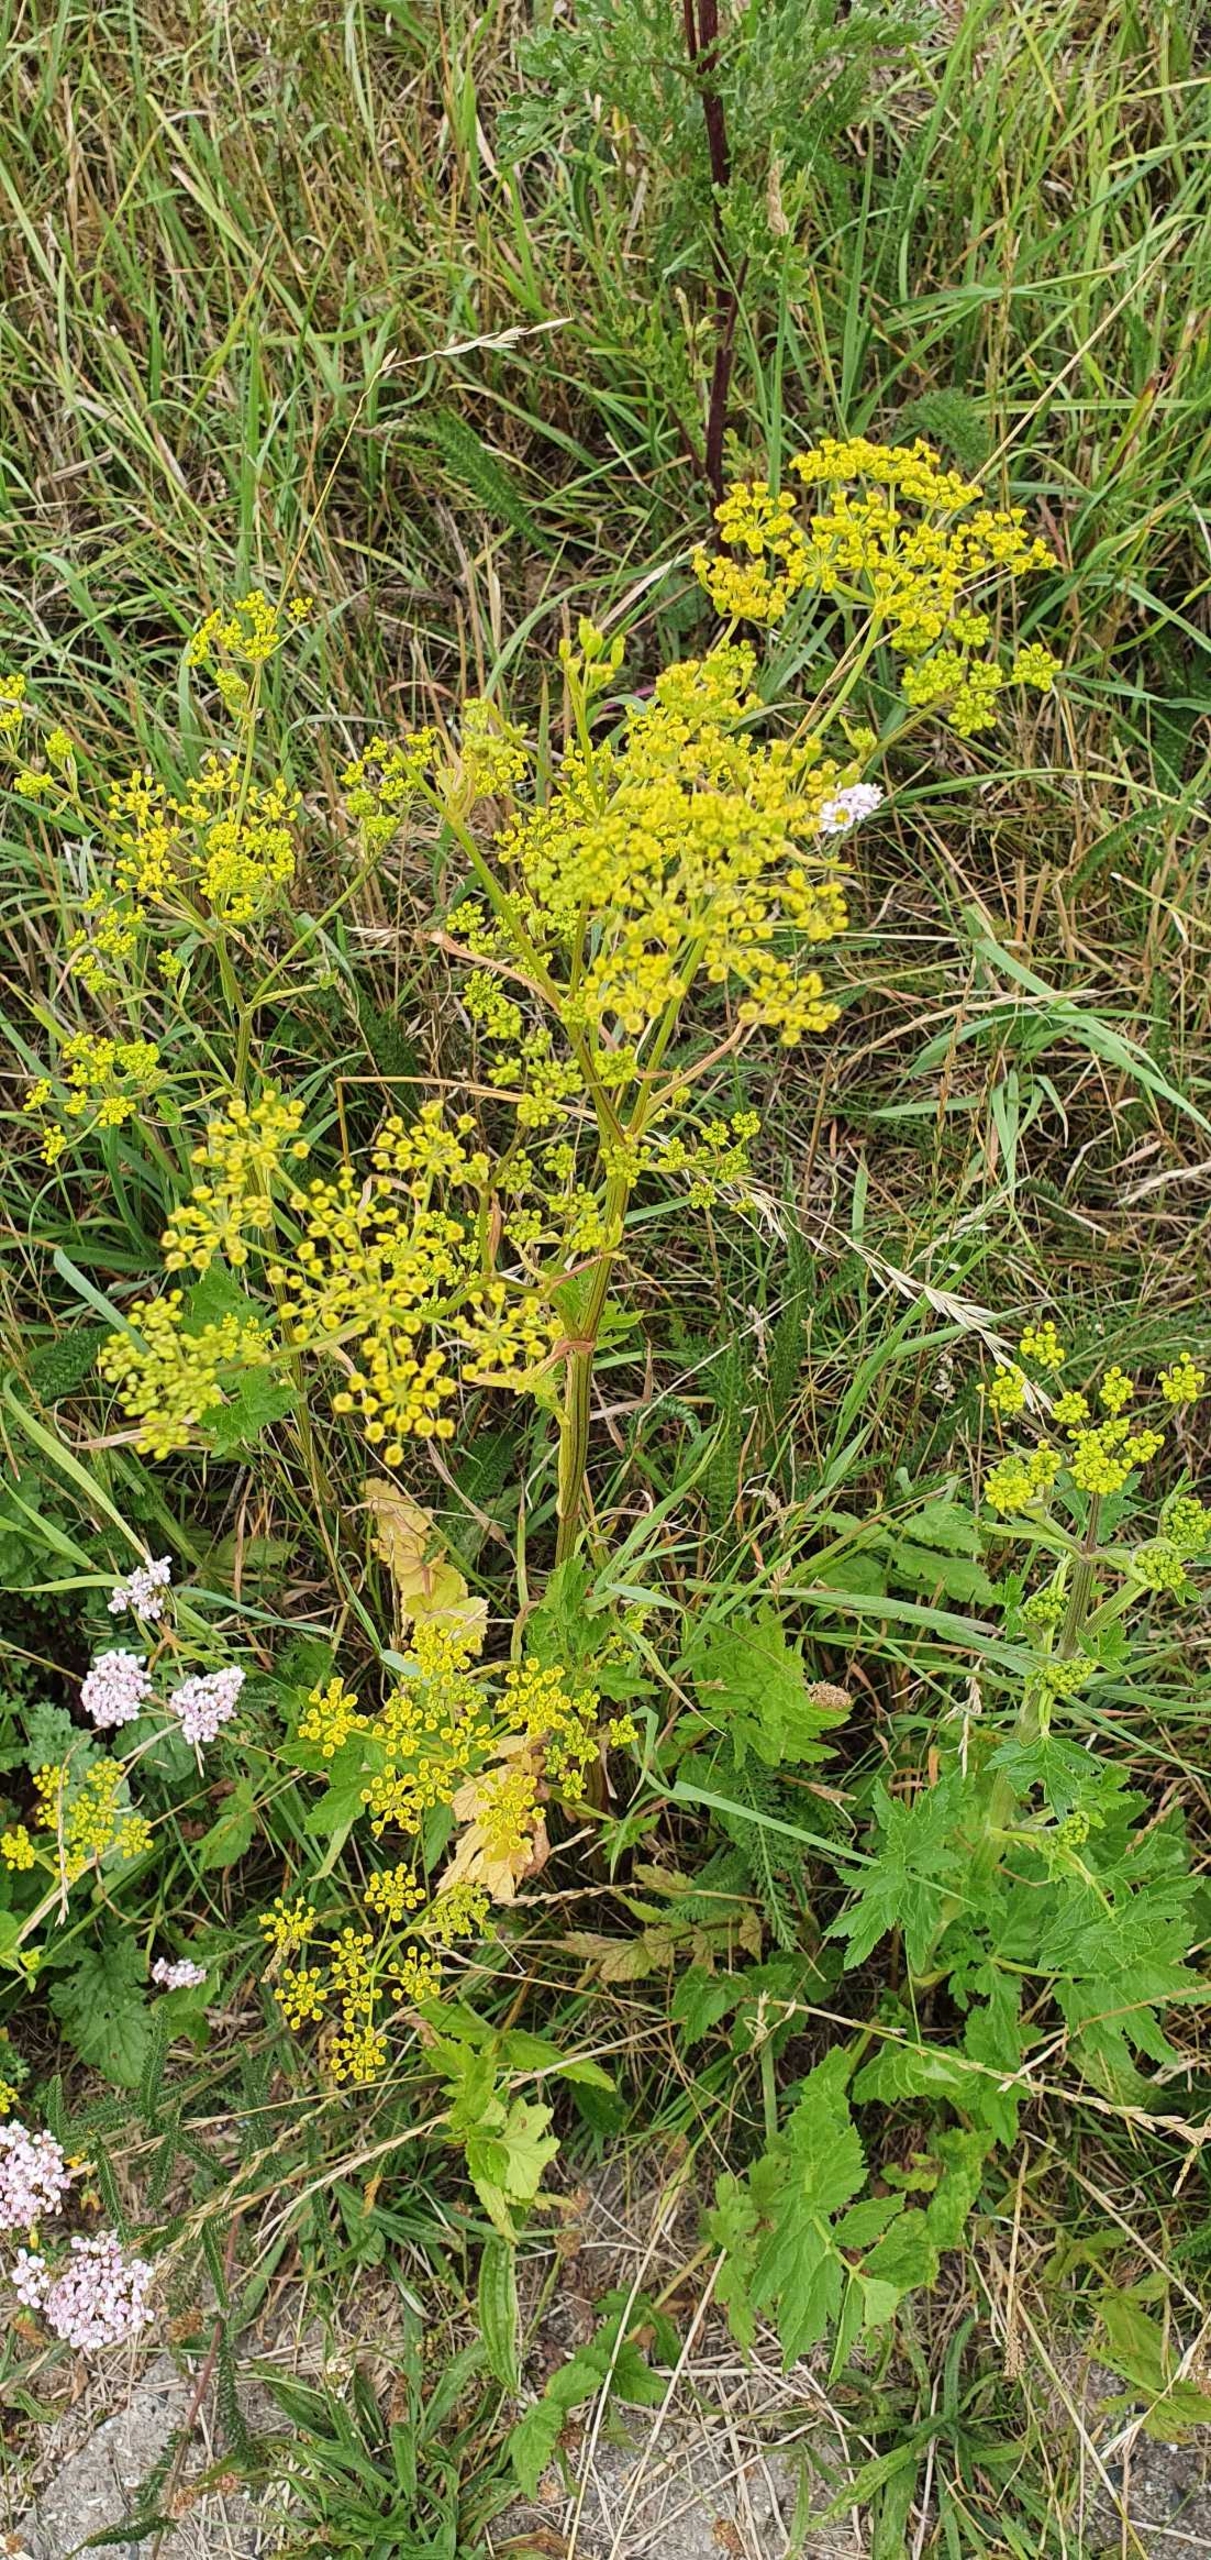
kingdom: Plantae
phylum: Tracheophyta
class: Magnoliopsida
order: Apiales
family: Apiaceae
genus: Pastinaca
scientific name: Pastinaca sativa
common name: Pastinak
